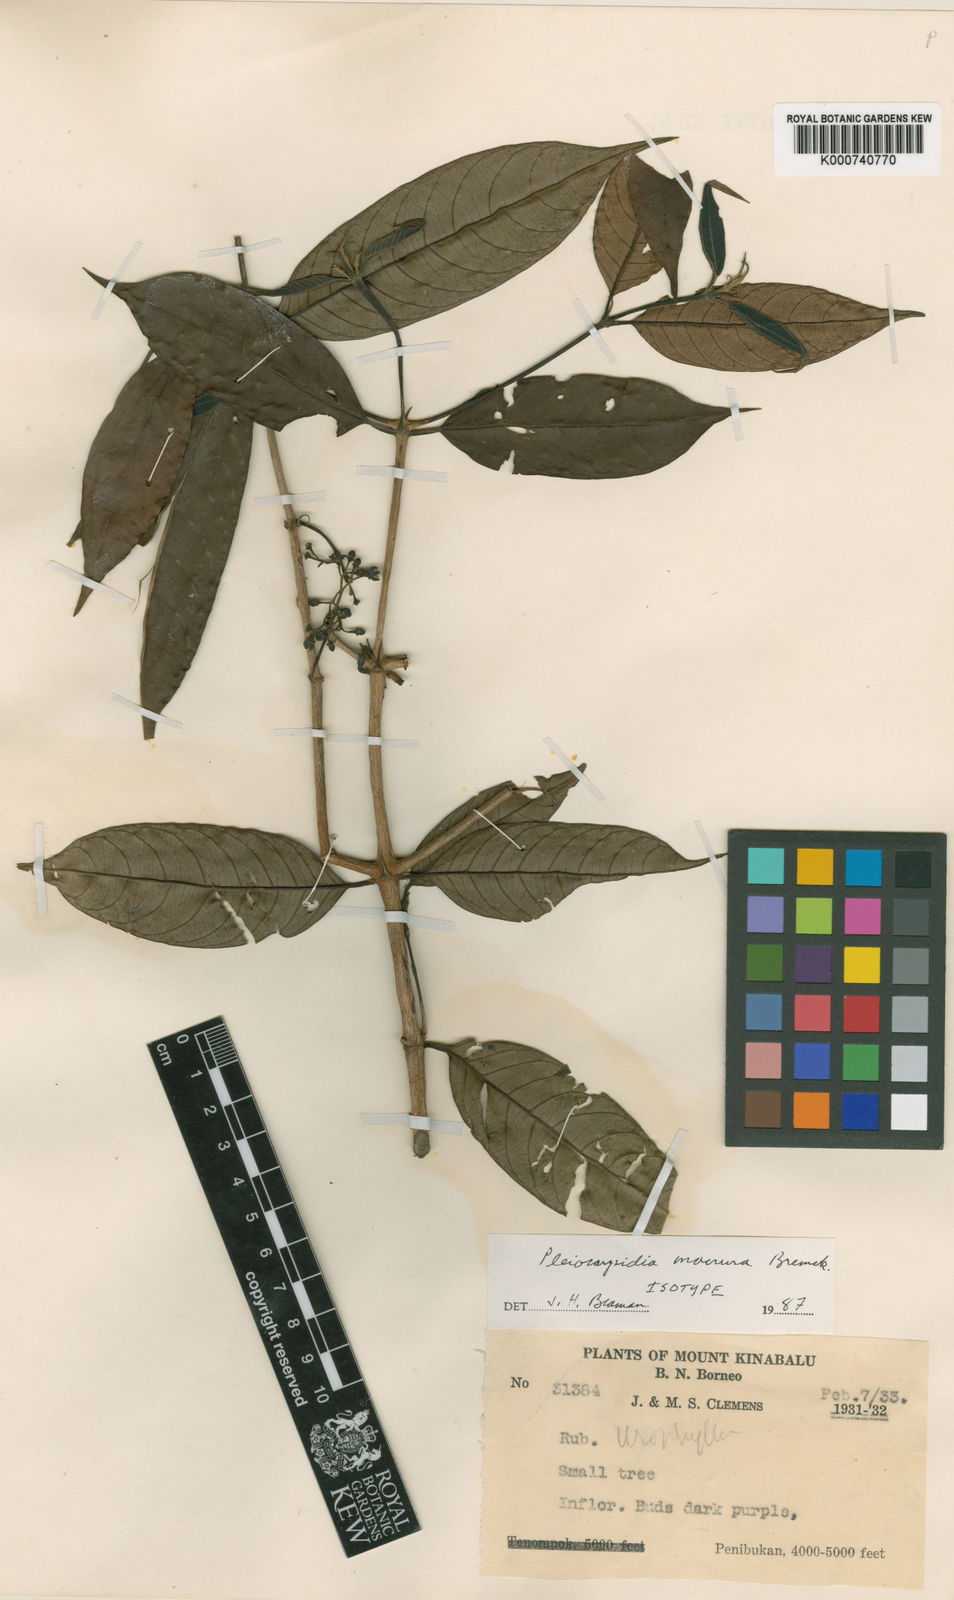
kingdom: Plantae
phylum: Tracheophyta
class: Magnoliopsida
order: Gentianales
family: Rubiaceae
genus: Urophyllum
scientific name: Urophyllum macrurum
